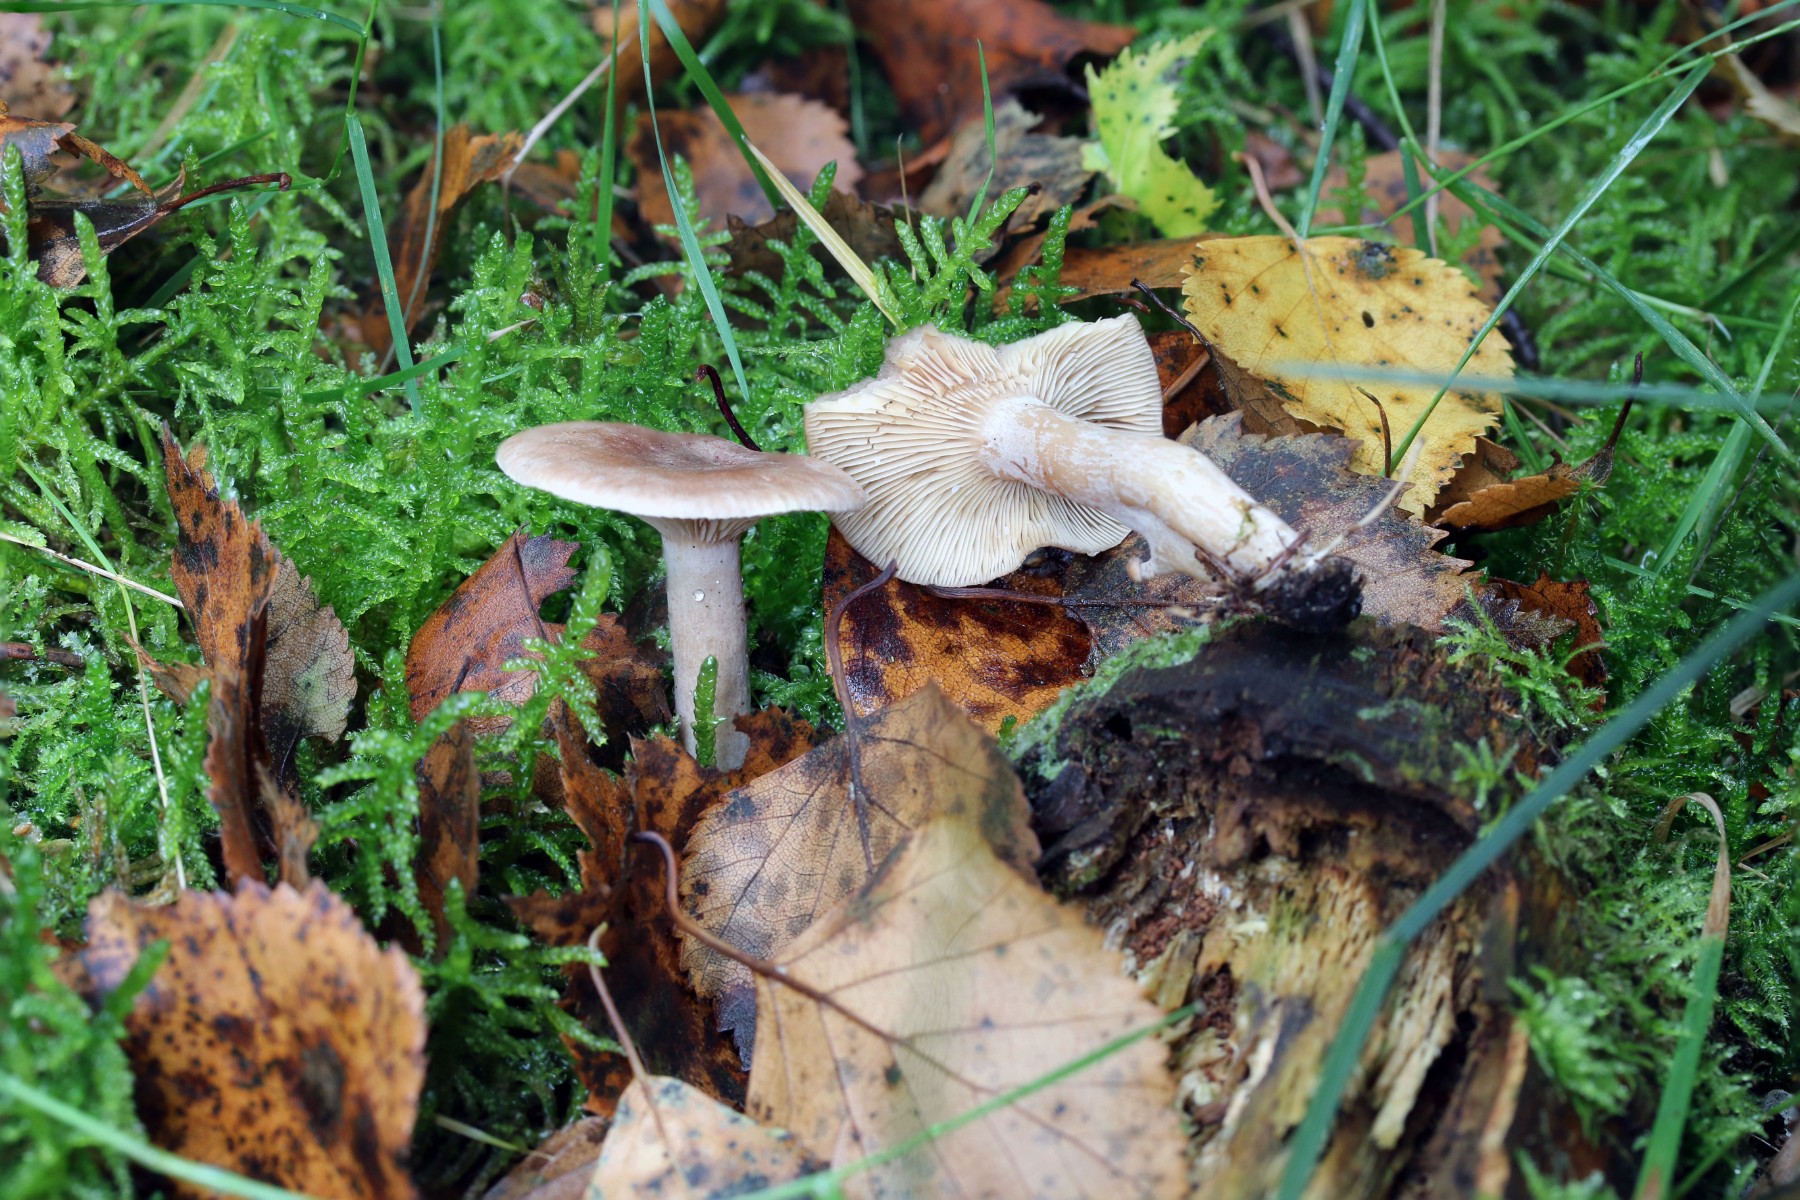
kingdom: Fungi
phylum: Basidiomycota
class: Agaricomycetes
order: Russulales
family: Russulaceae
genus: Lactarius
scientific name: Lactarius glyciosmus
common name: kokos-mælkehat
